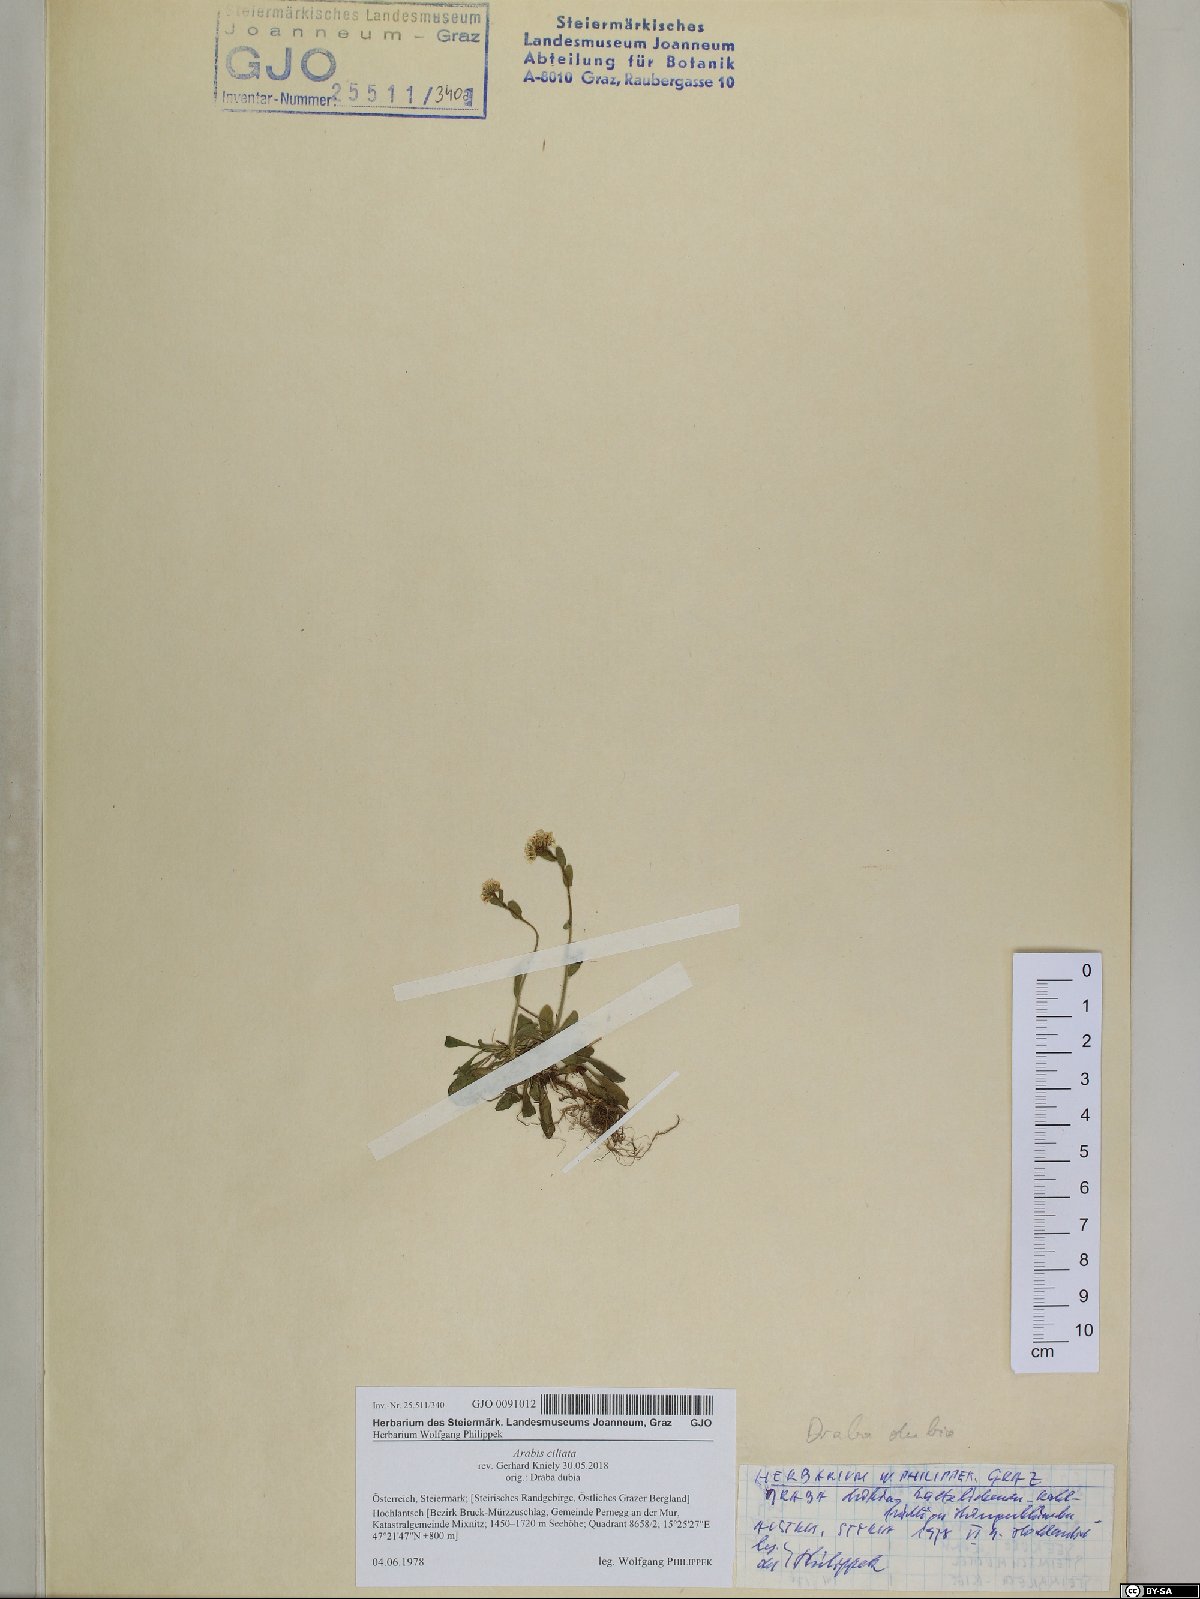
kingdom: Plantae
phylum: Tracheophyta
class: Magnoliopsida
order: Brassicales
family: Brassicaceae
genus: Arabis
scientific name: Arabis ciliata
